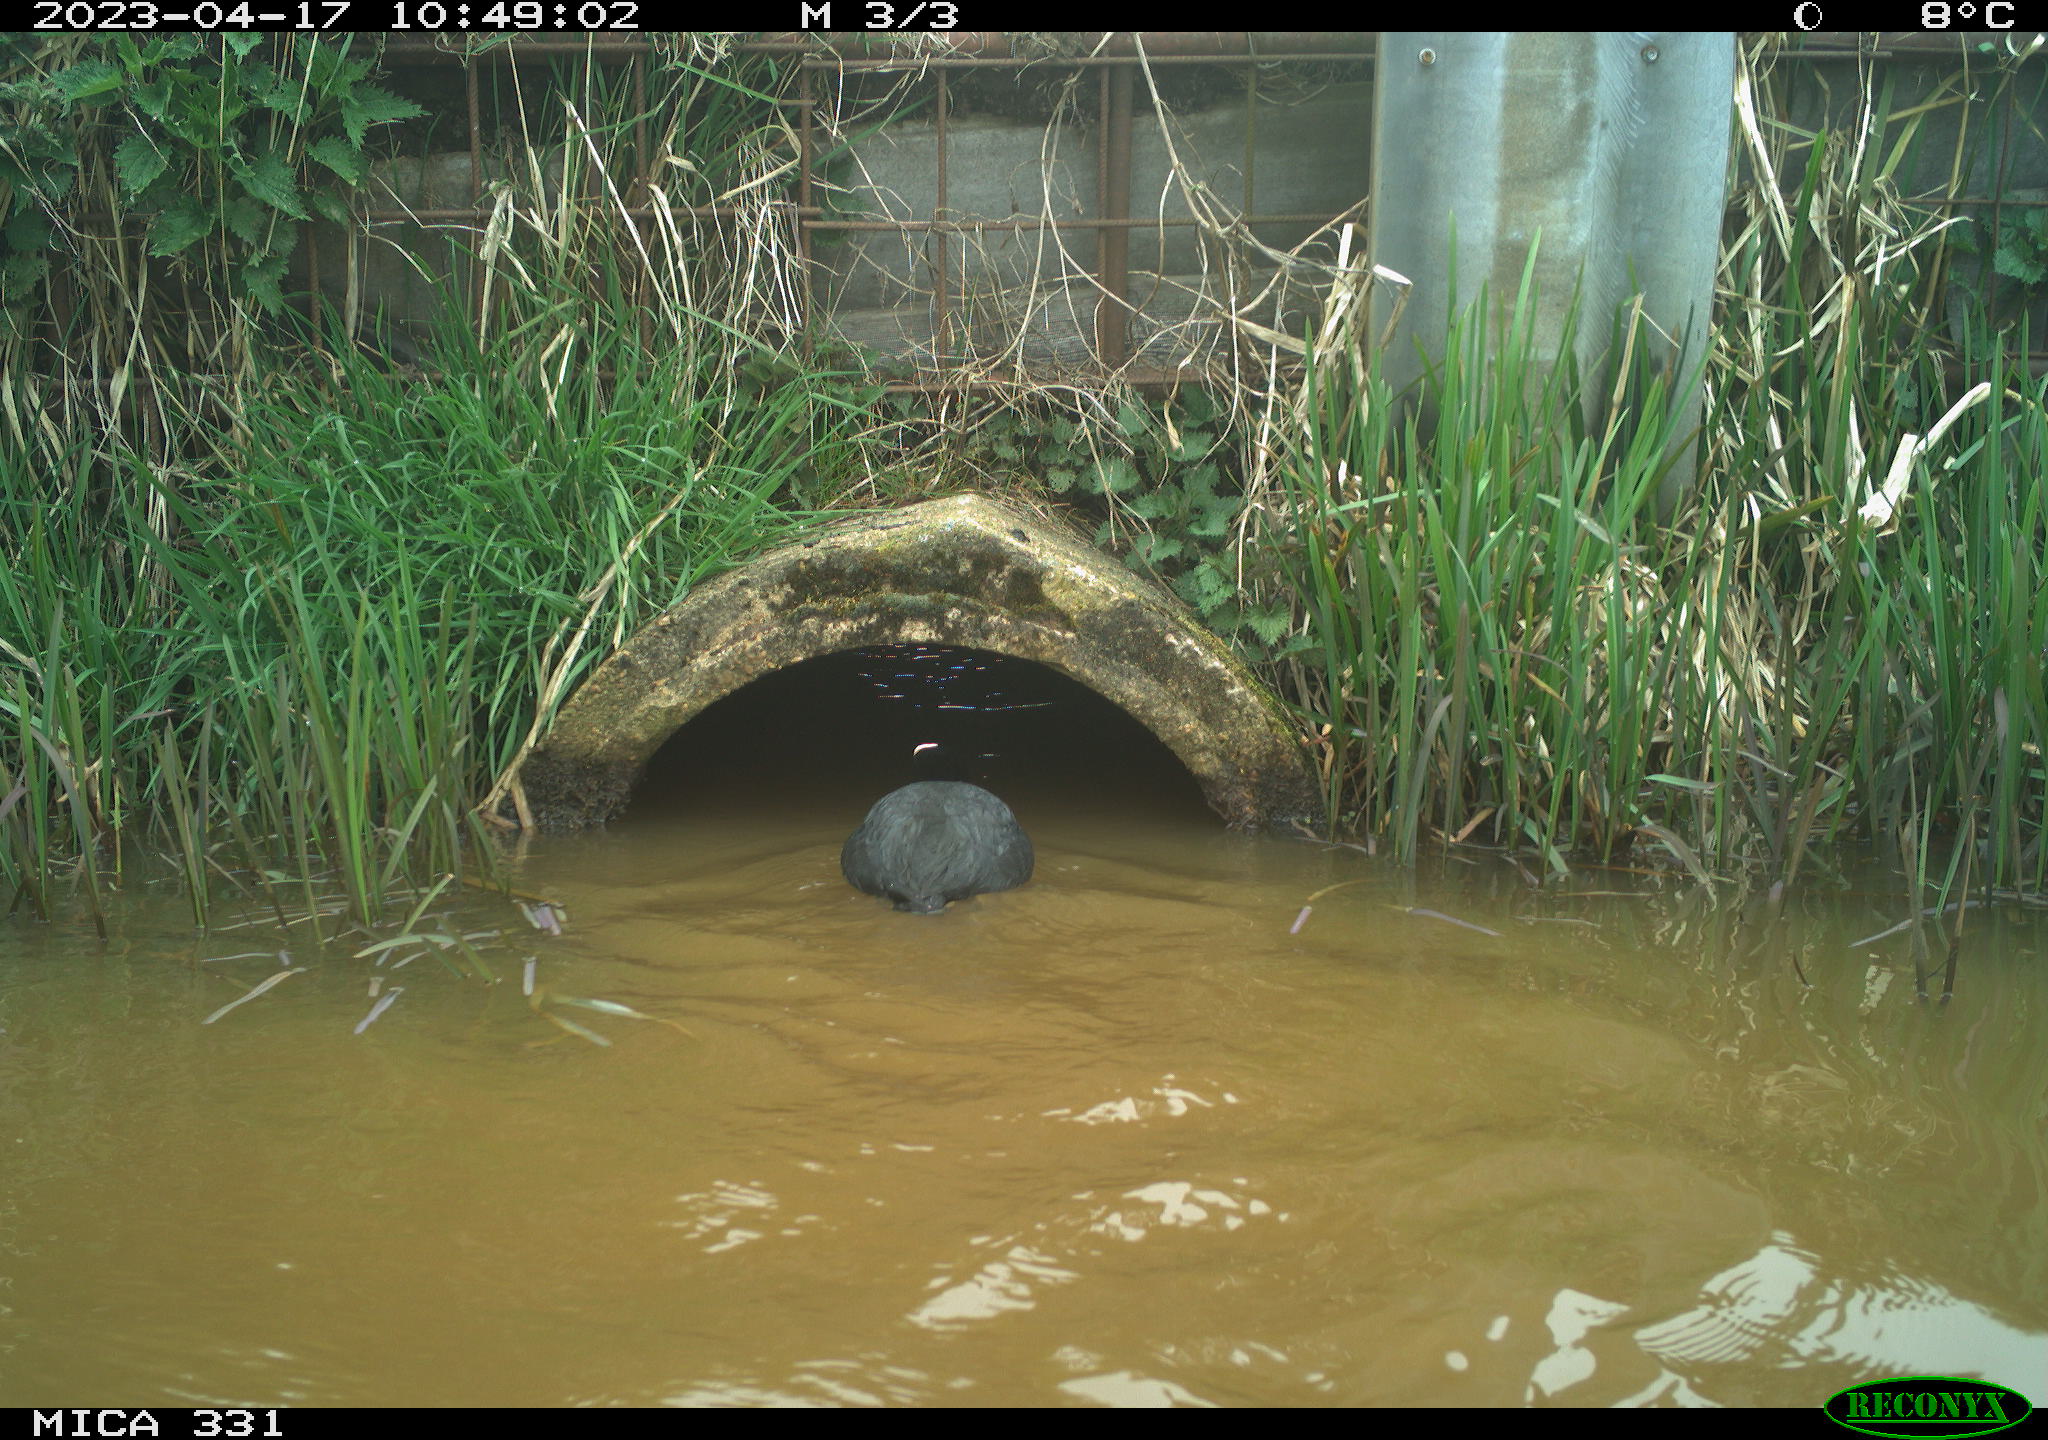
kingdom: Animalia
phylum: Chordata
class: Aves
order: Gruiformes
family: Rallidae
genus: Fulica
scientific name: Fulica atra
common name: Eurasian coot
